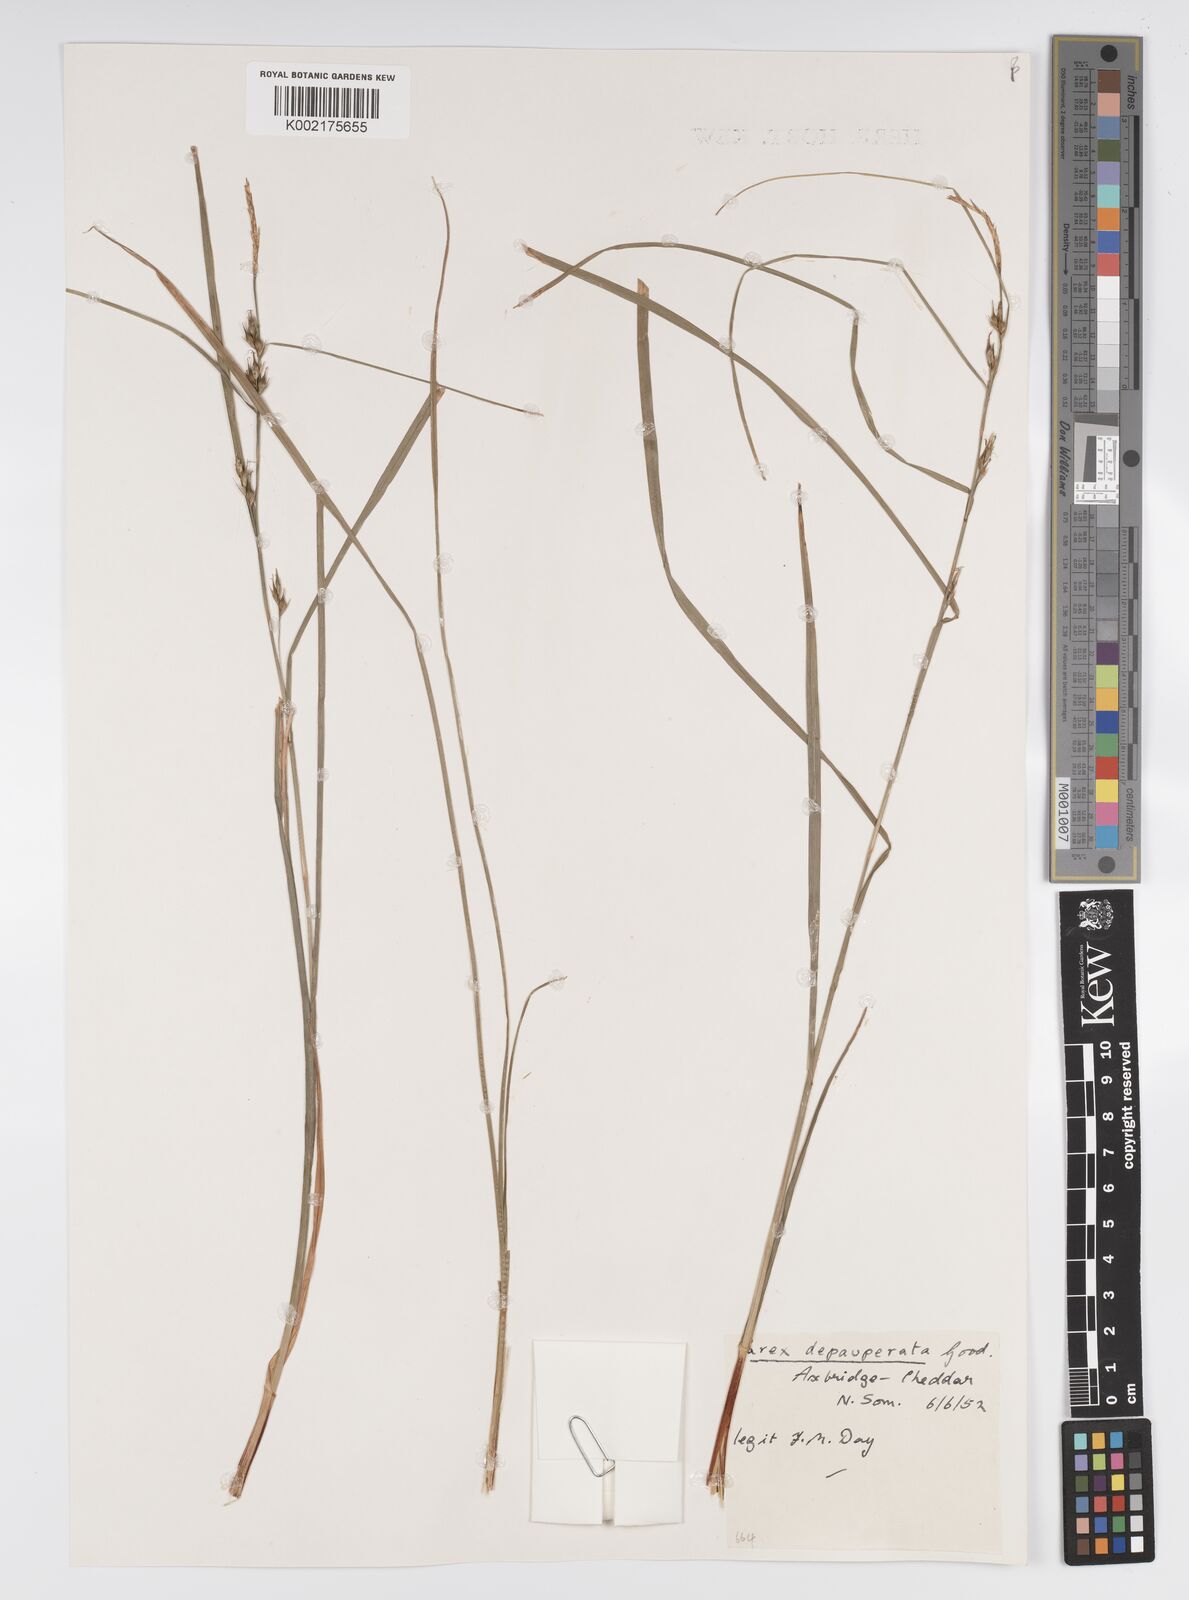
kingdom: Plantae
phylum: Tracheophyta
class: Liliopsida
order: Poales
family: Cyperaceae
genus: Carex
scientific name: Carex depauperata
